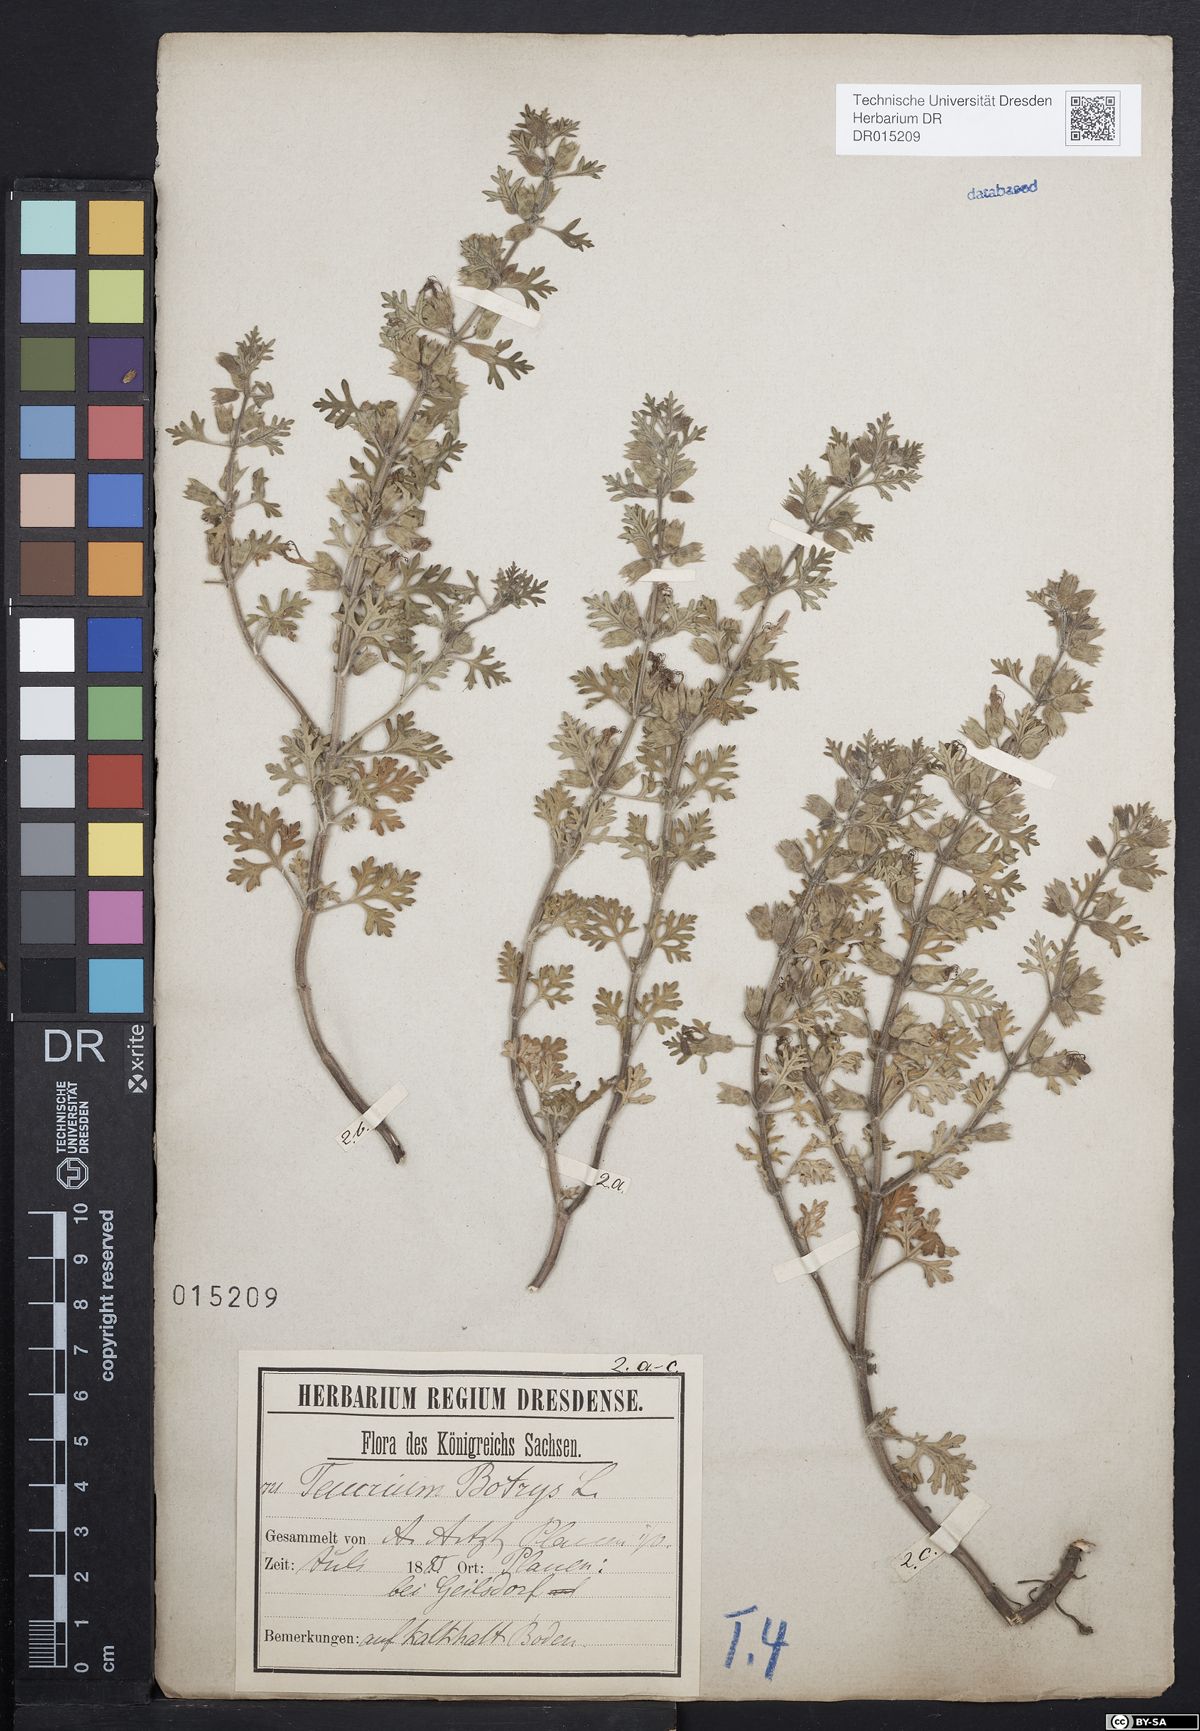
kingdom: Plantae
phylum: Tracheophyta
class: Magnoliopsida
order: Lamiales
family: Lamiaceae
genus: Teucrium
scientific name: Teucrium botrys
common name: Cut-leaved germander
